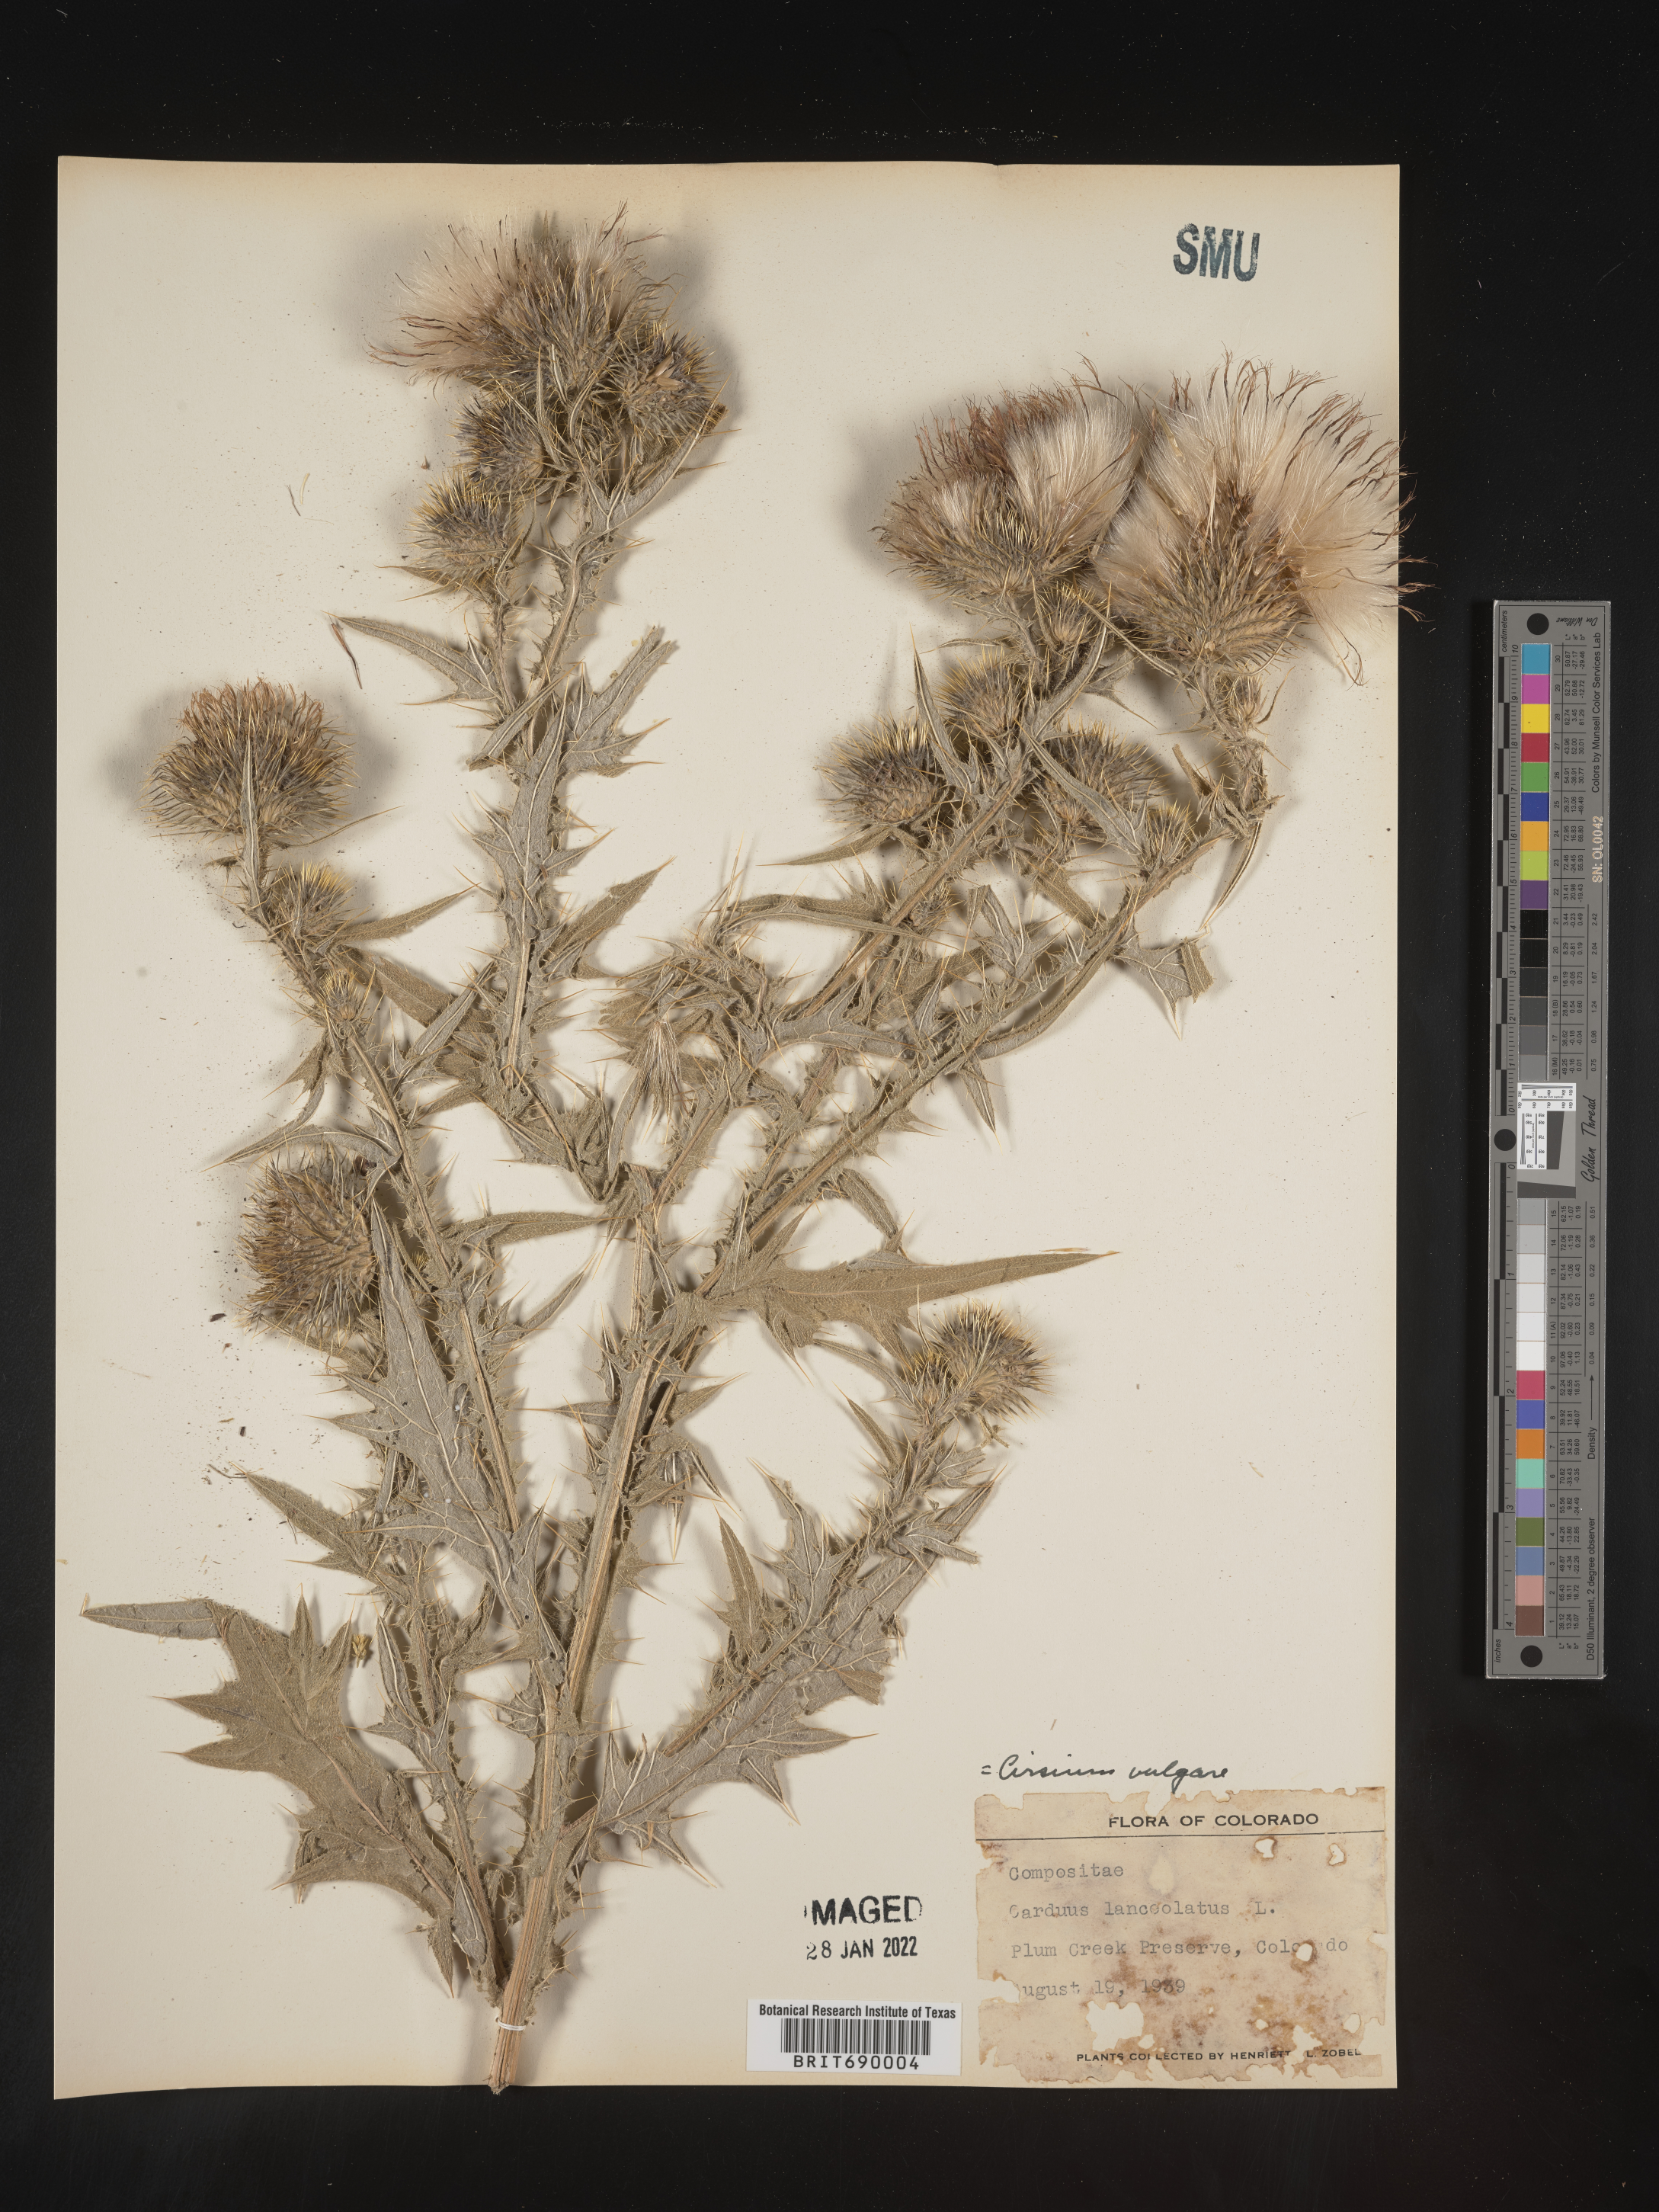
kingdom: Plantae
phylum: Tracheophyta
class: Magnoliopsida
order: Asterales
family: Asteraceae
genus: Cirsium
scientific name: Cirsium vulgare
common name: Bull thistle
